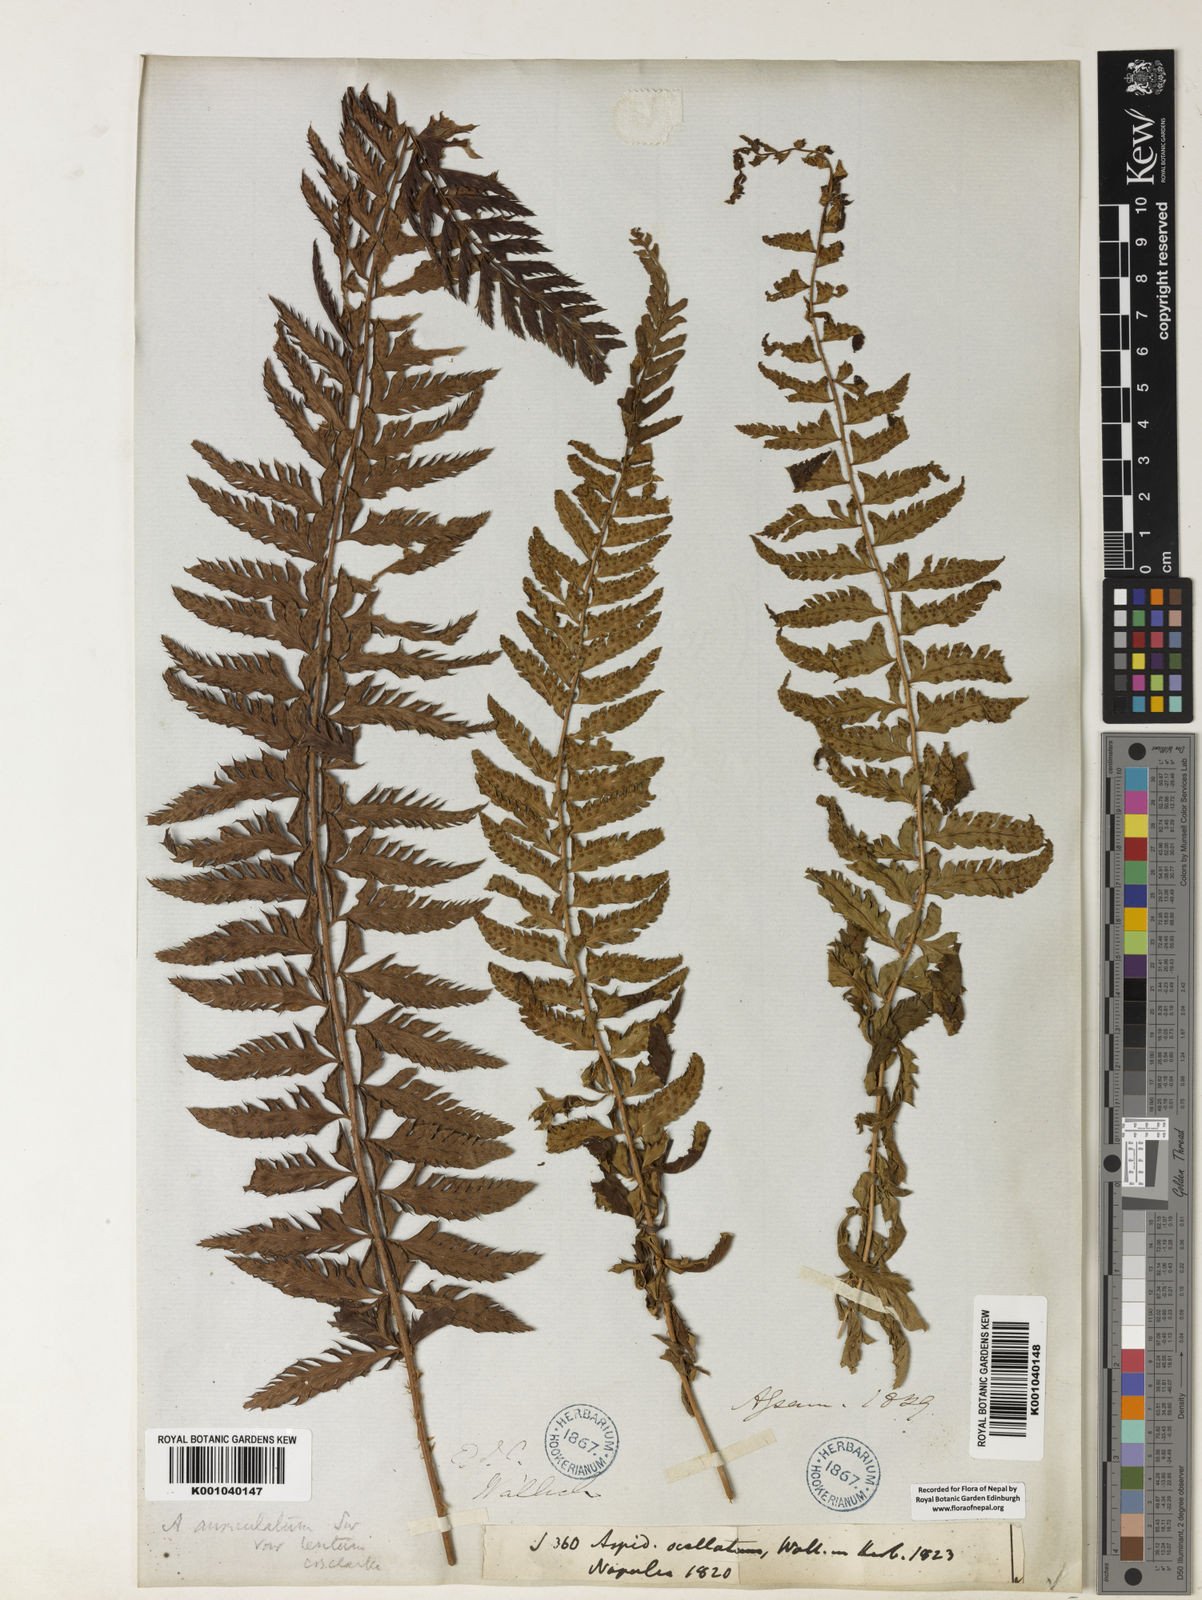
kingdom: Plantae
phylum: Tracheophyta
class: Polypodiopsida
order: Polypodiales
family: Dryopteridaceae
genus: Polystichum
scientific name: Polystichum lentum
